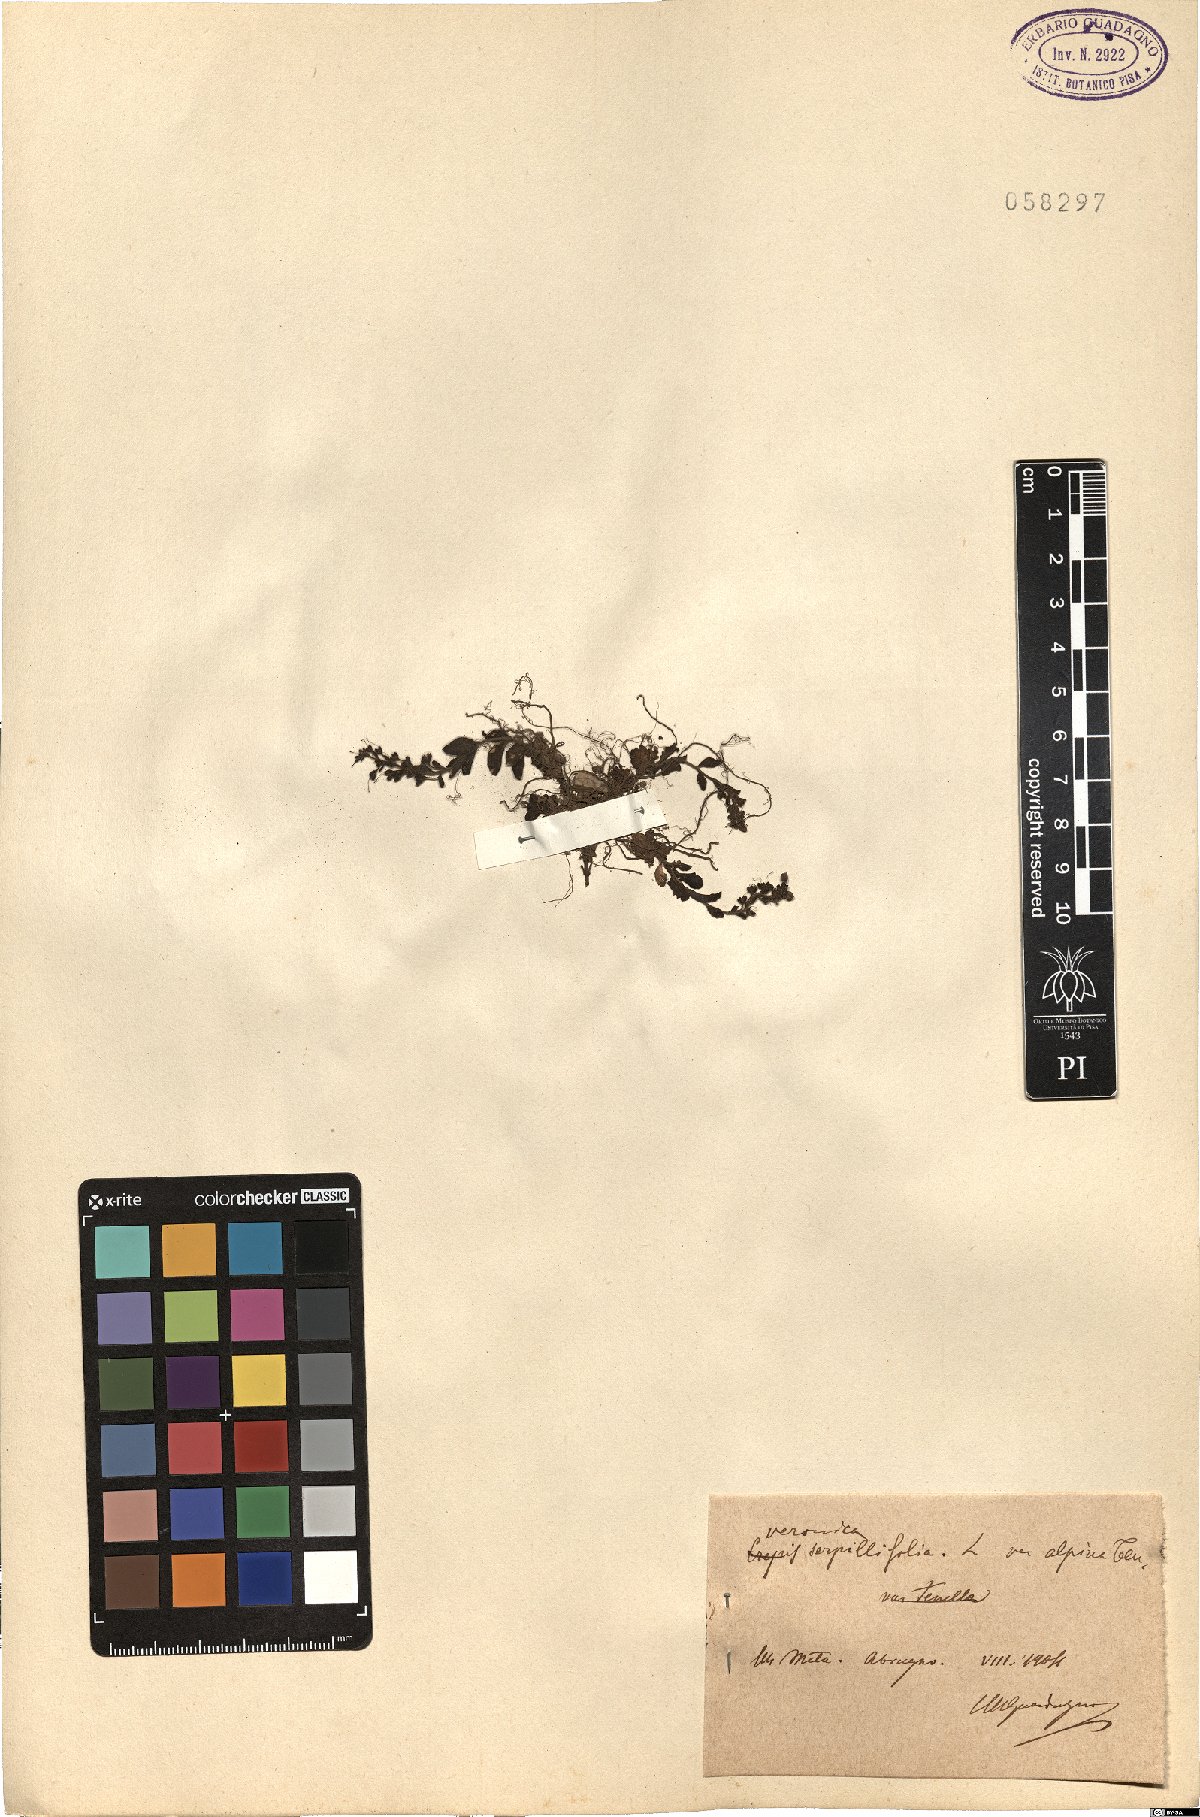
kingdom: Plantae
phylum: Tracheophyta
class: Magnoliopsida
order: Lamiales
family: Plantaginaceae
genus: Veronica
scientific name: Veronica serpyllifolia
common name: Thyme-leaved speedwell
